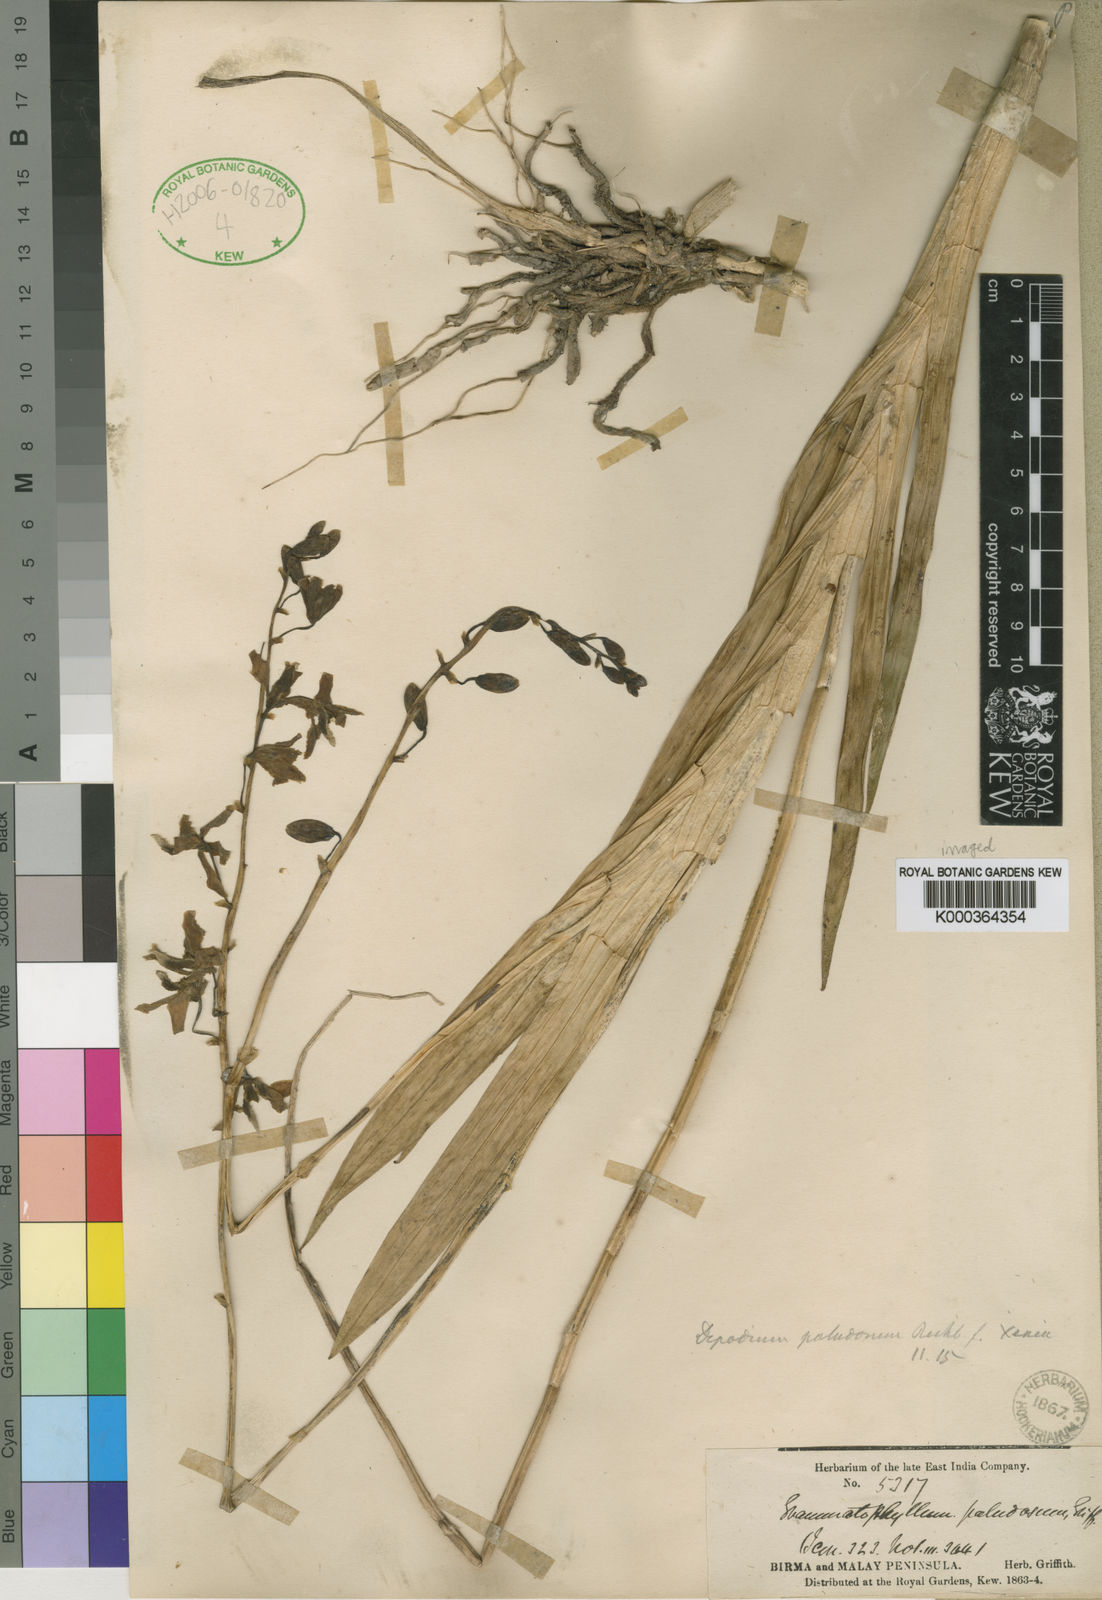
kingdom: Plantae
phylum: Tracheophyta
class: Liliopsida
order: Asparagales
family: Orchidaceae
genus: Dipodium
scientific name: Dipodium paludosum
